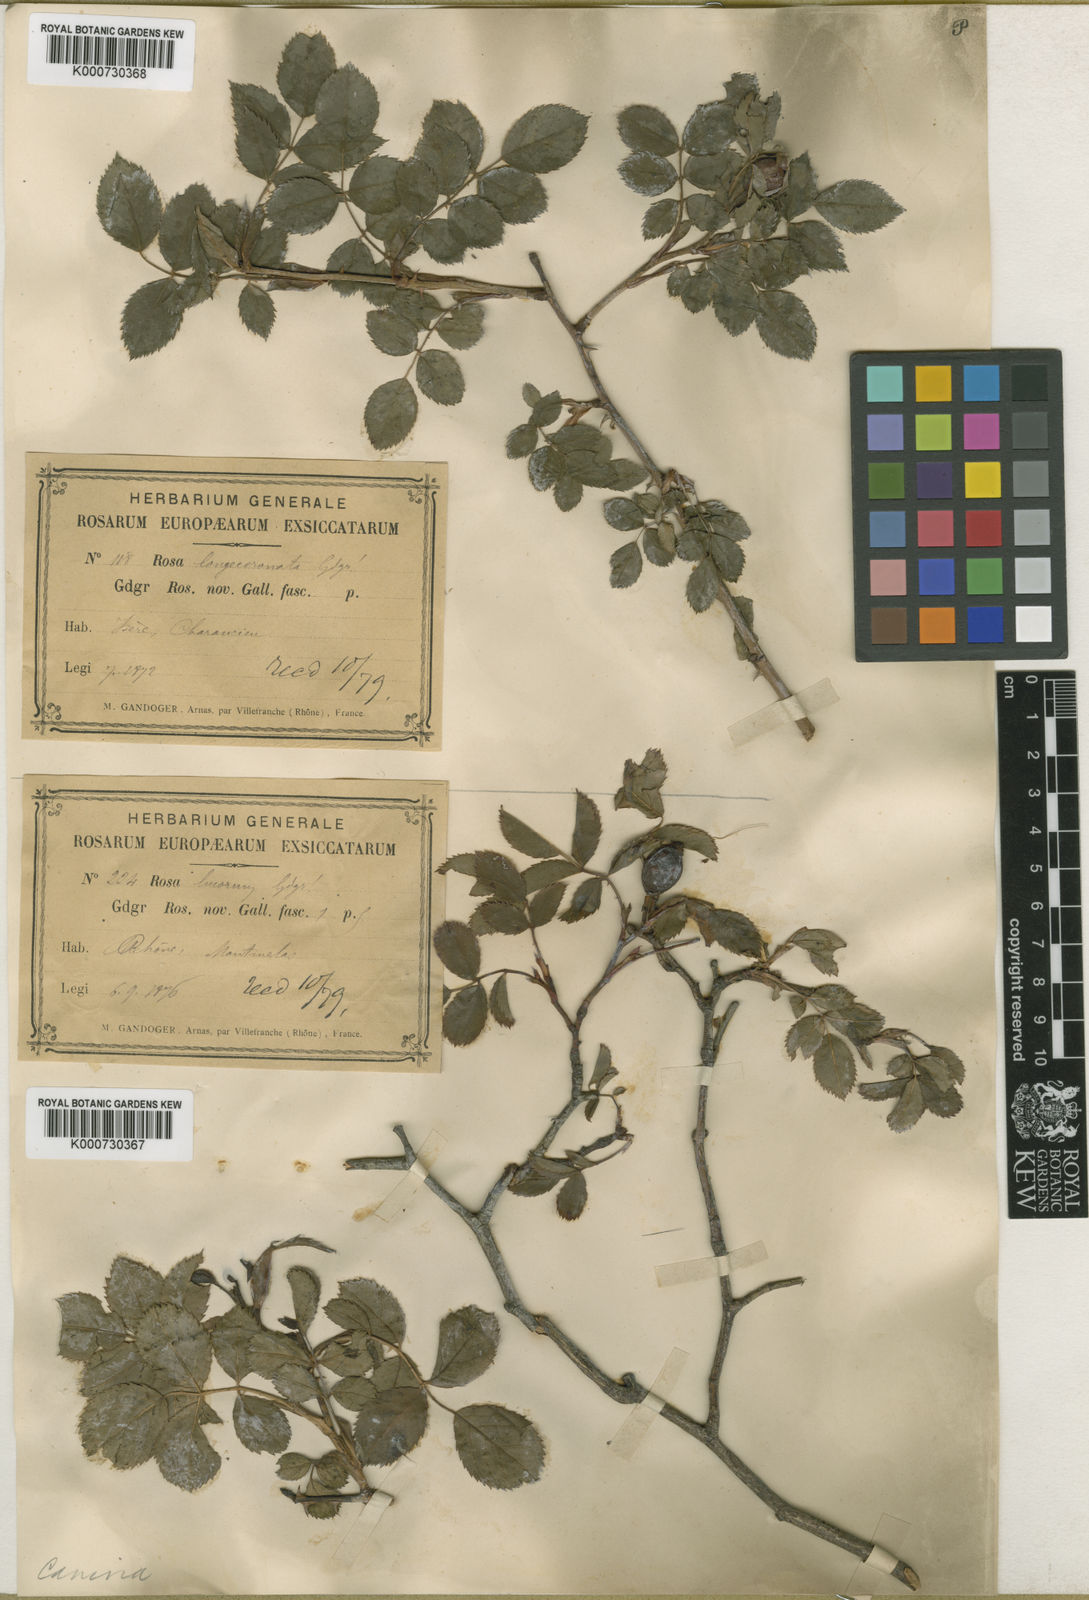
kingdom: Plantae
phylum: Tracheophyta
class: Magnoliopsida
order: Rosales
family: Rosaceae
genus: Rosa
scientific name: Rosa canina
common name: Dog rose
